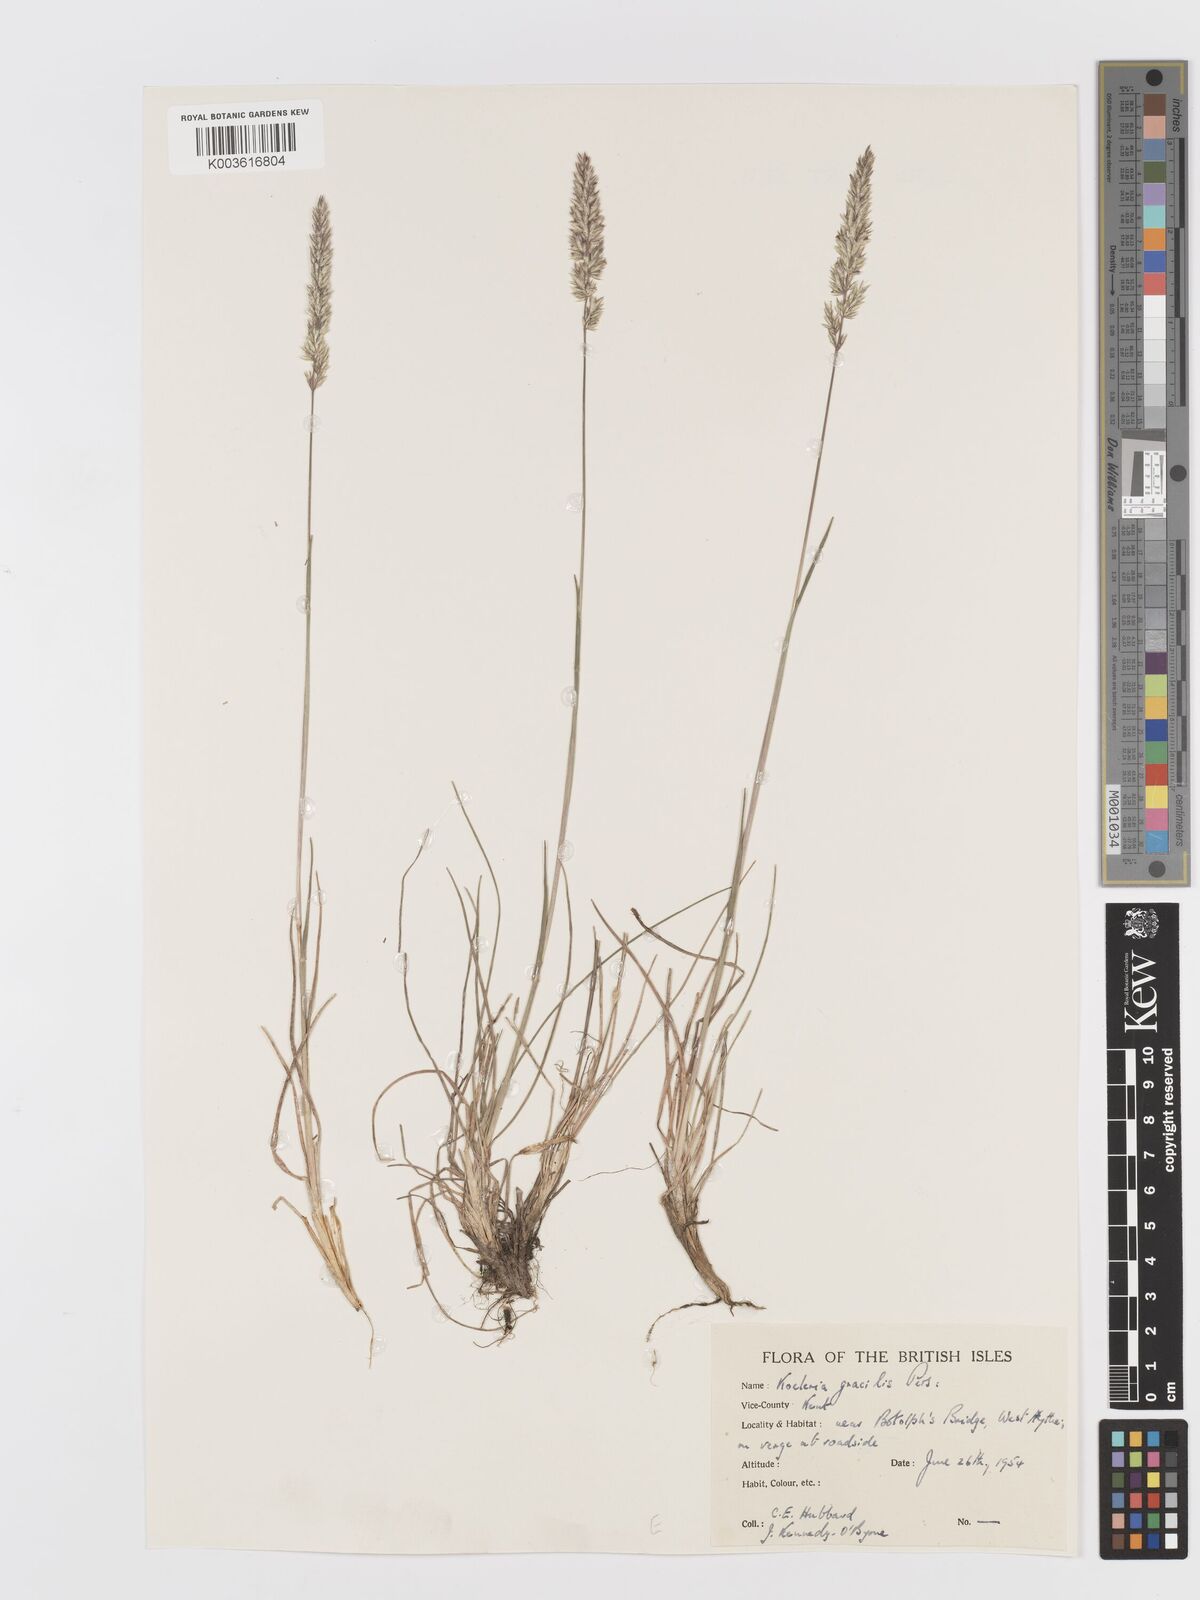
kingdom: Plantae
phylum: Tracheophyta
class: Liliopsida
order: Poales
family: Poaceae
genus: Koeleria
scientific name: Koeleria macrantha
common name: Crested hair-grass
